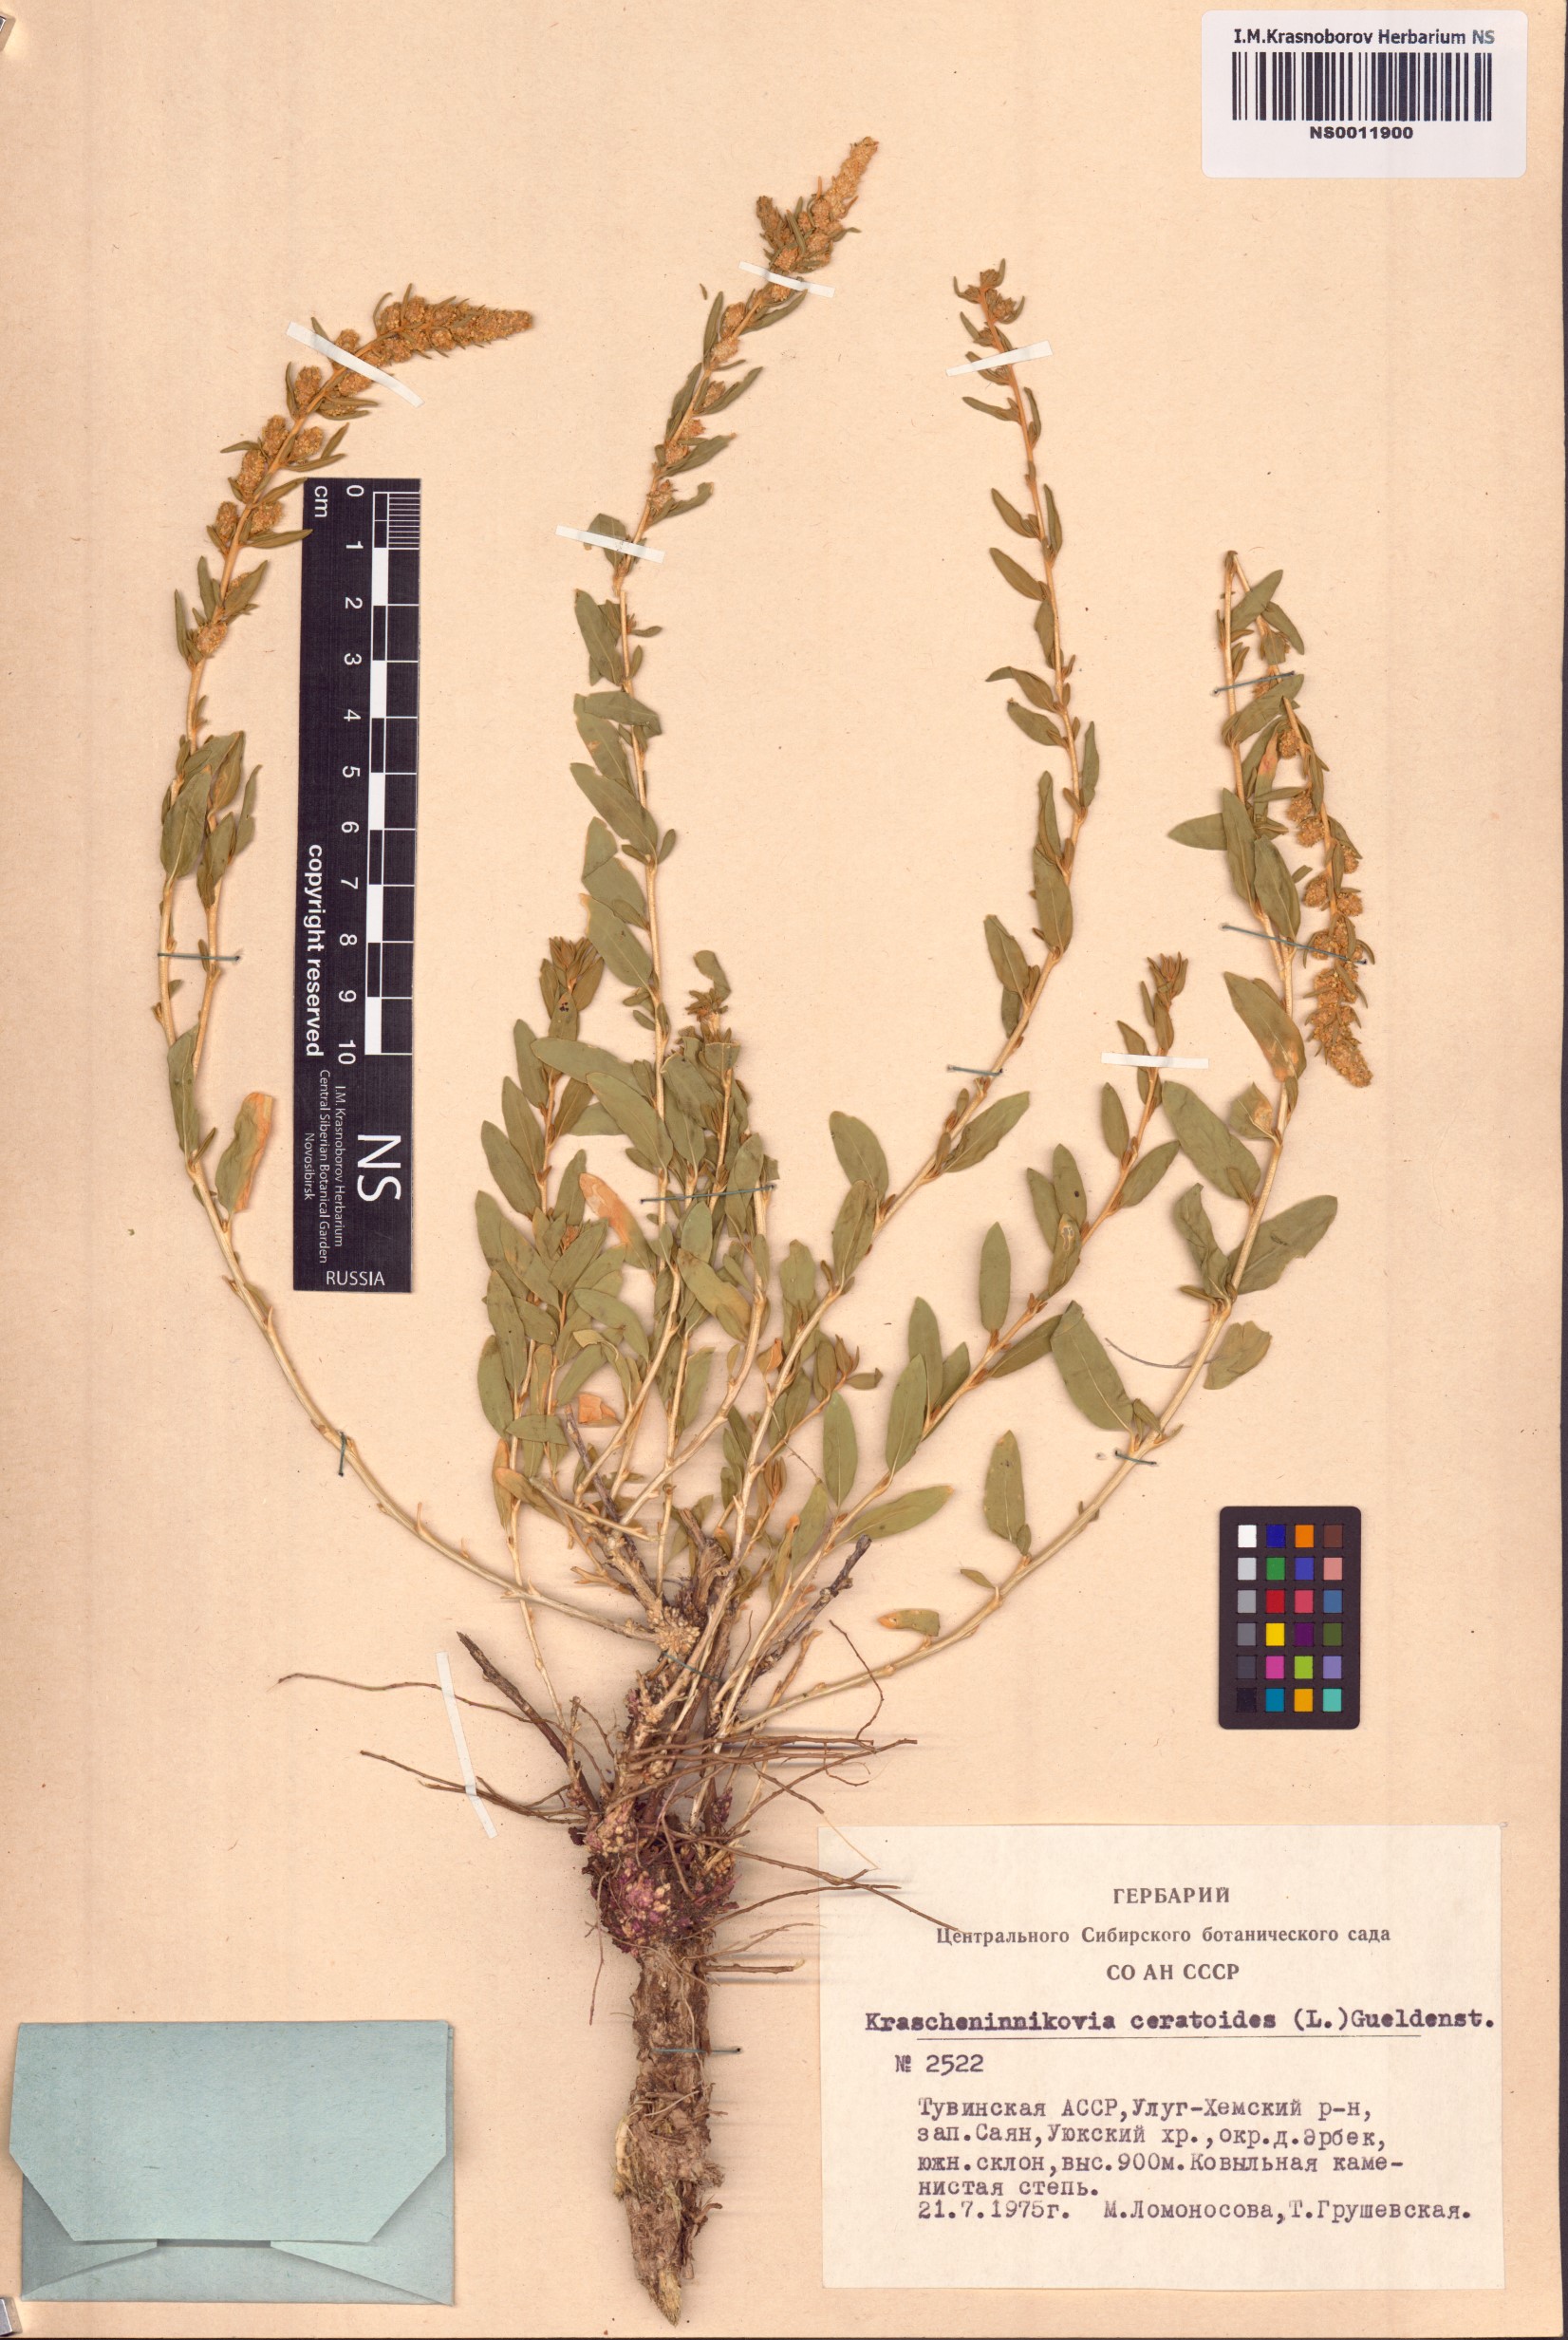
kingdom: Plantae
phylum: Tracheophyta
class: Magnoliopsida
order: Caryophyllales
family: Amaranthaceae
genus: Krascheninnikovia
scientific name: Krascheninnikovia ceratoides
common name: Pamirian winterfat
